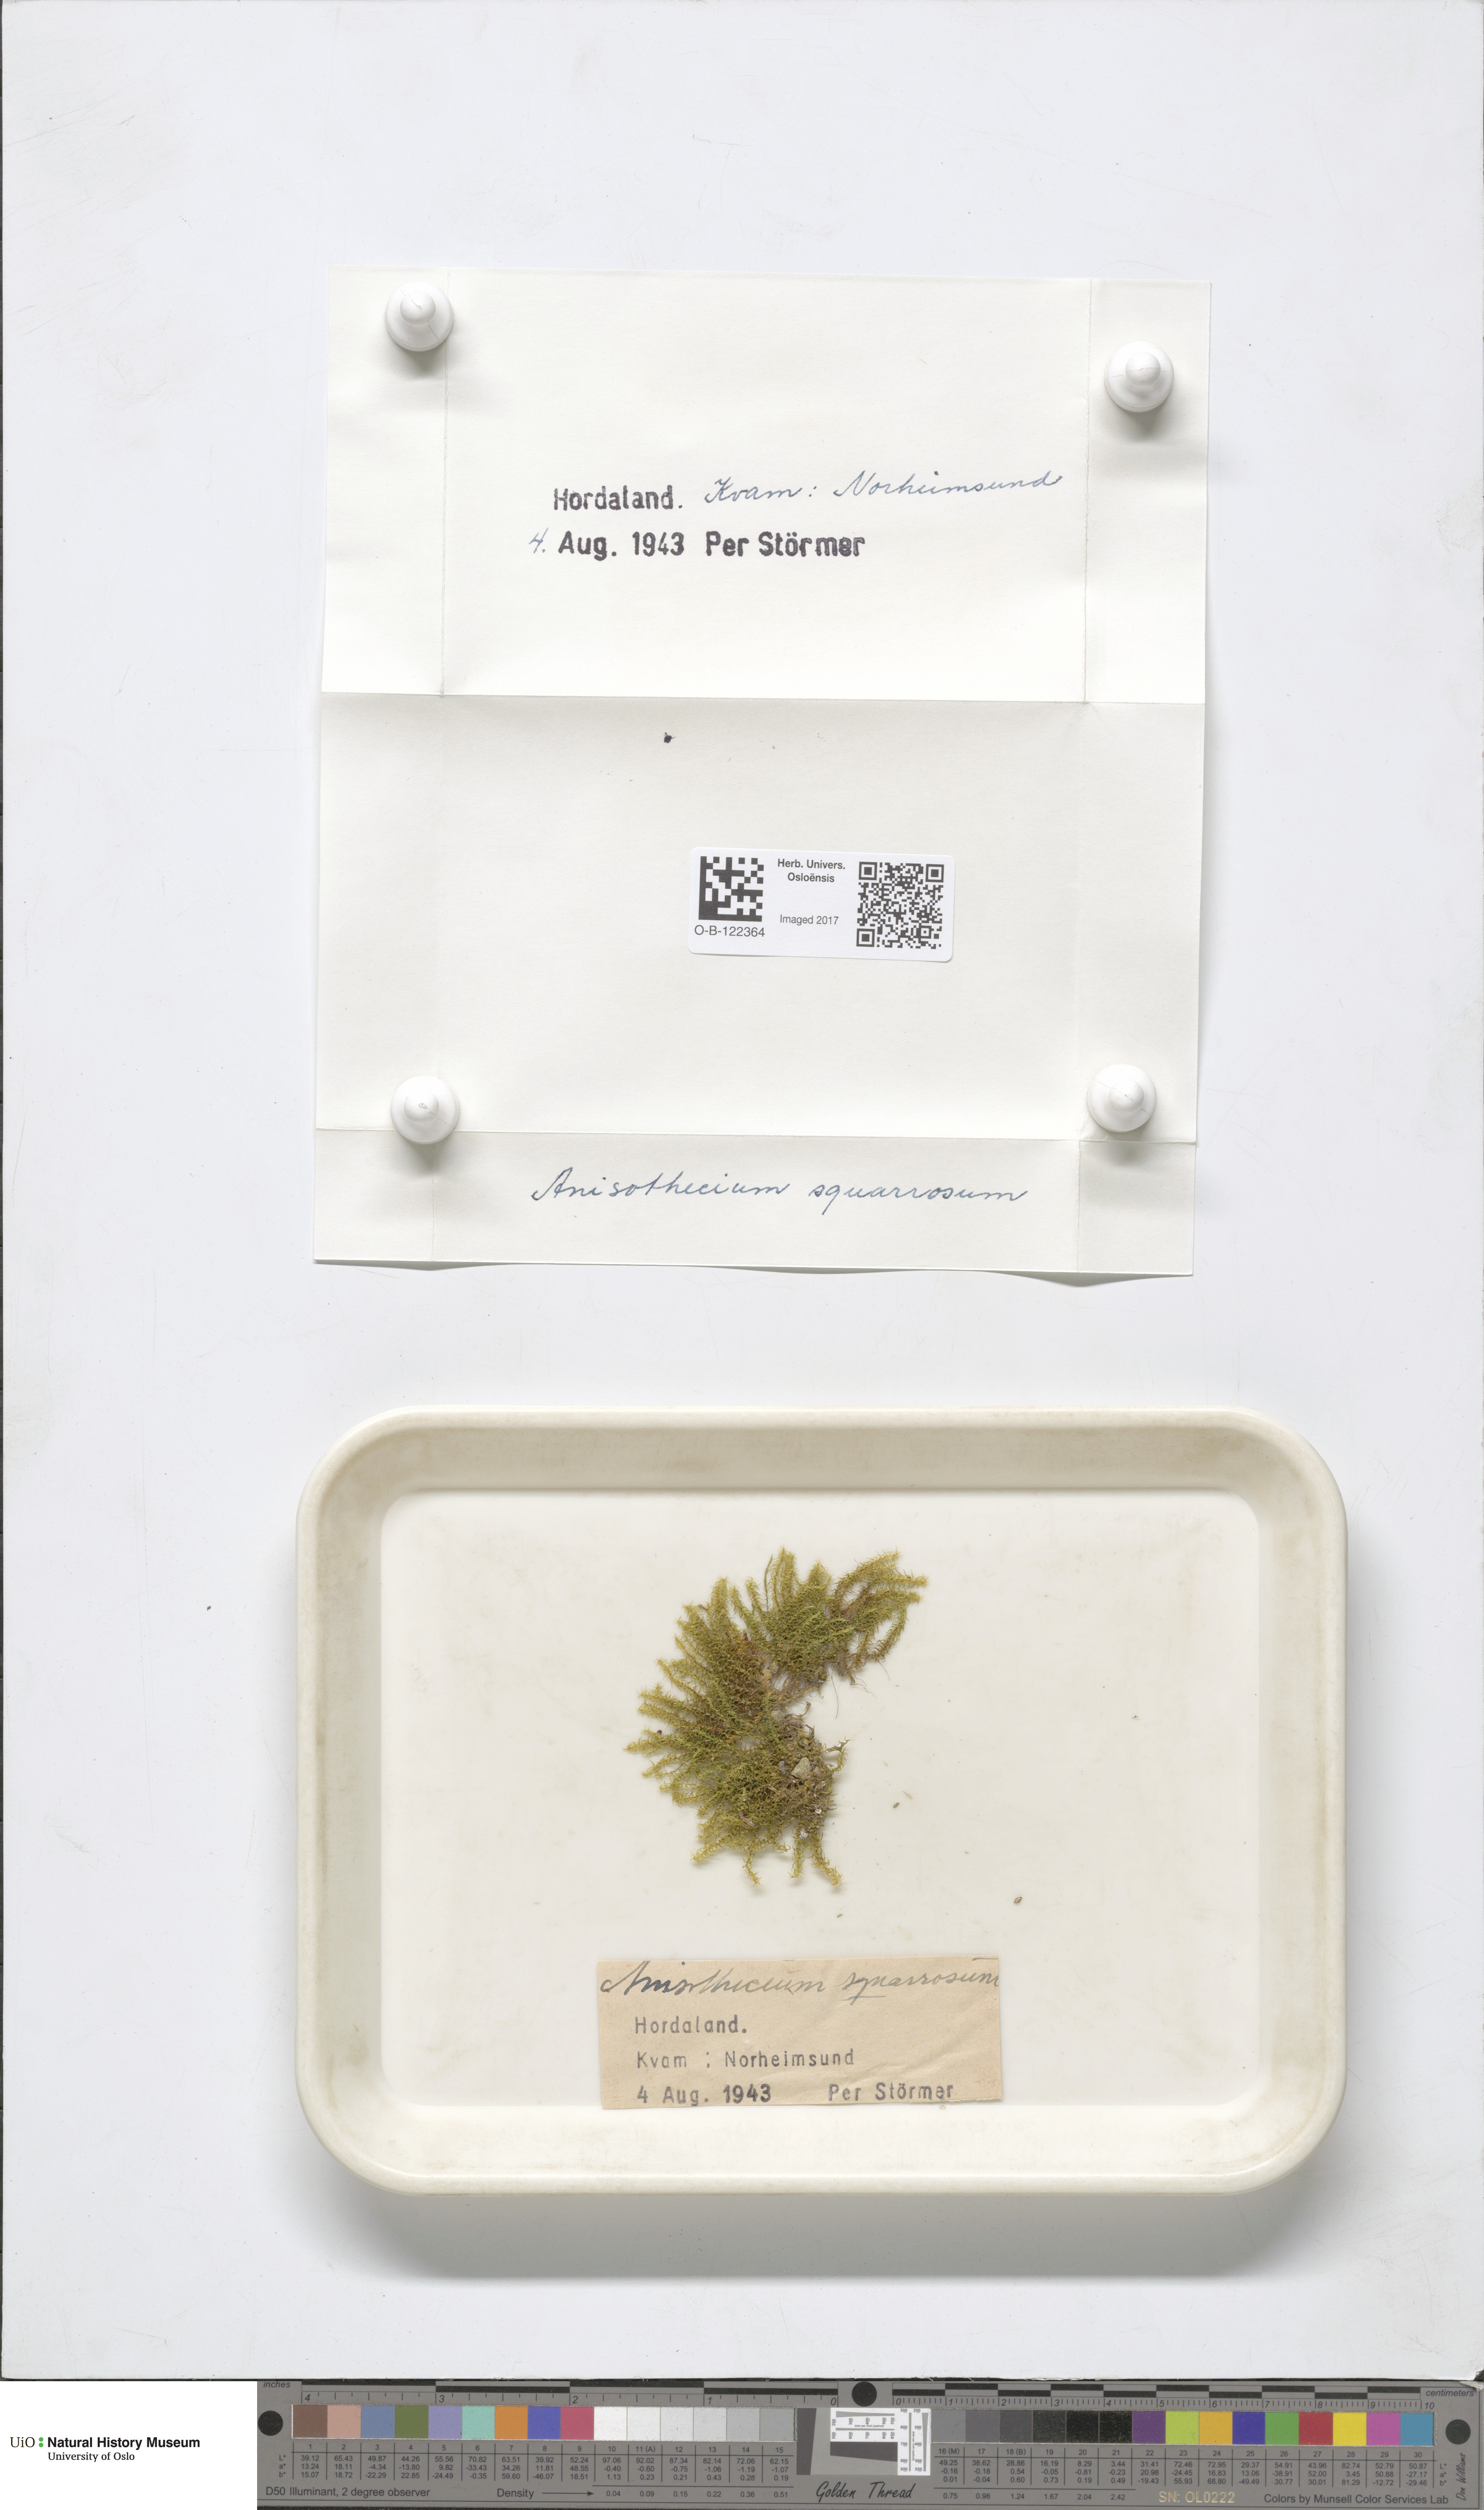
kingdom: Plantae
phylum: Bryophyta
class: Bryopsida
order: Dicranales
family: Aongstroemiaceae
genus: Diobelonella
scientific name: Diobelonella palustris
